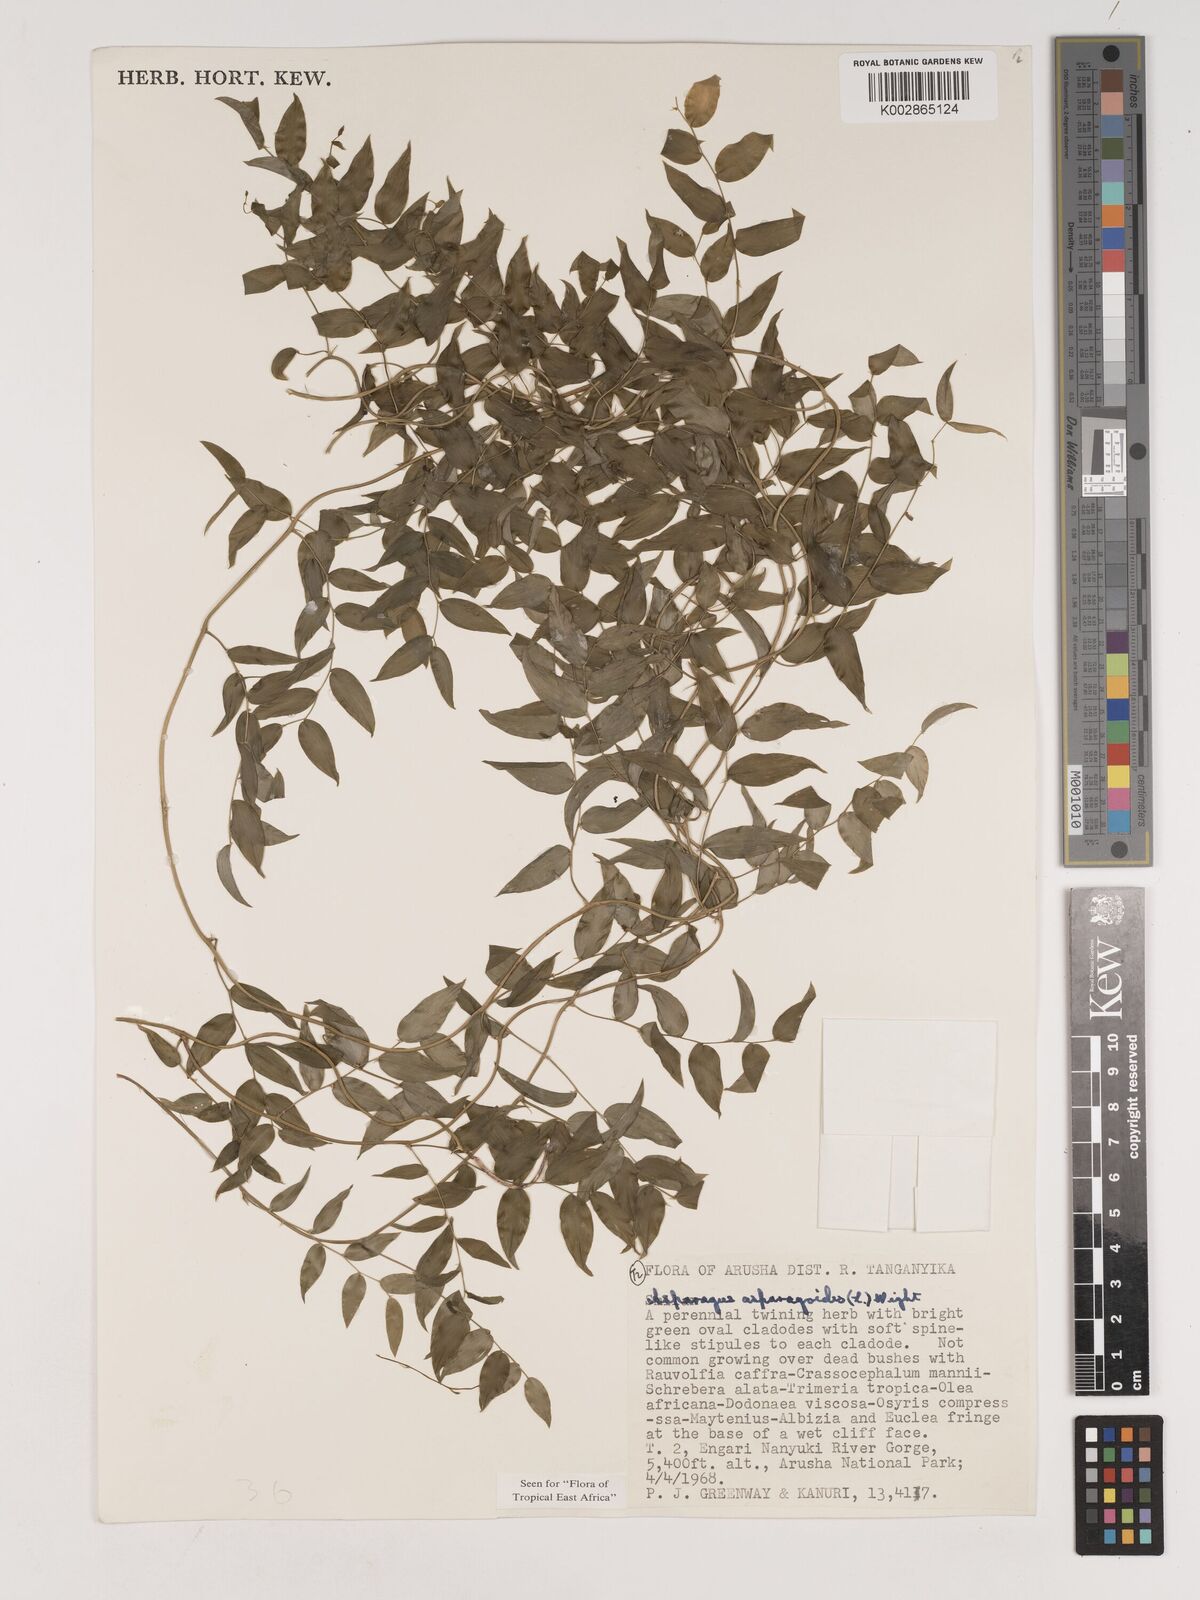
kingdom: Plantae
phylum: Tracheophyta
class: Liliopsida
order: Asparagales
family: Asparagaceae
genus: Asparagus
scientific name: Asparagus asparagoides
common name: African asparagus fern
